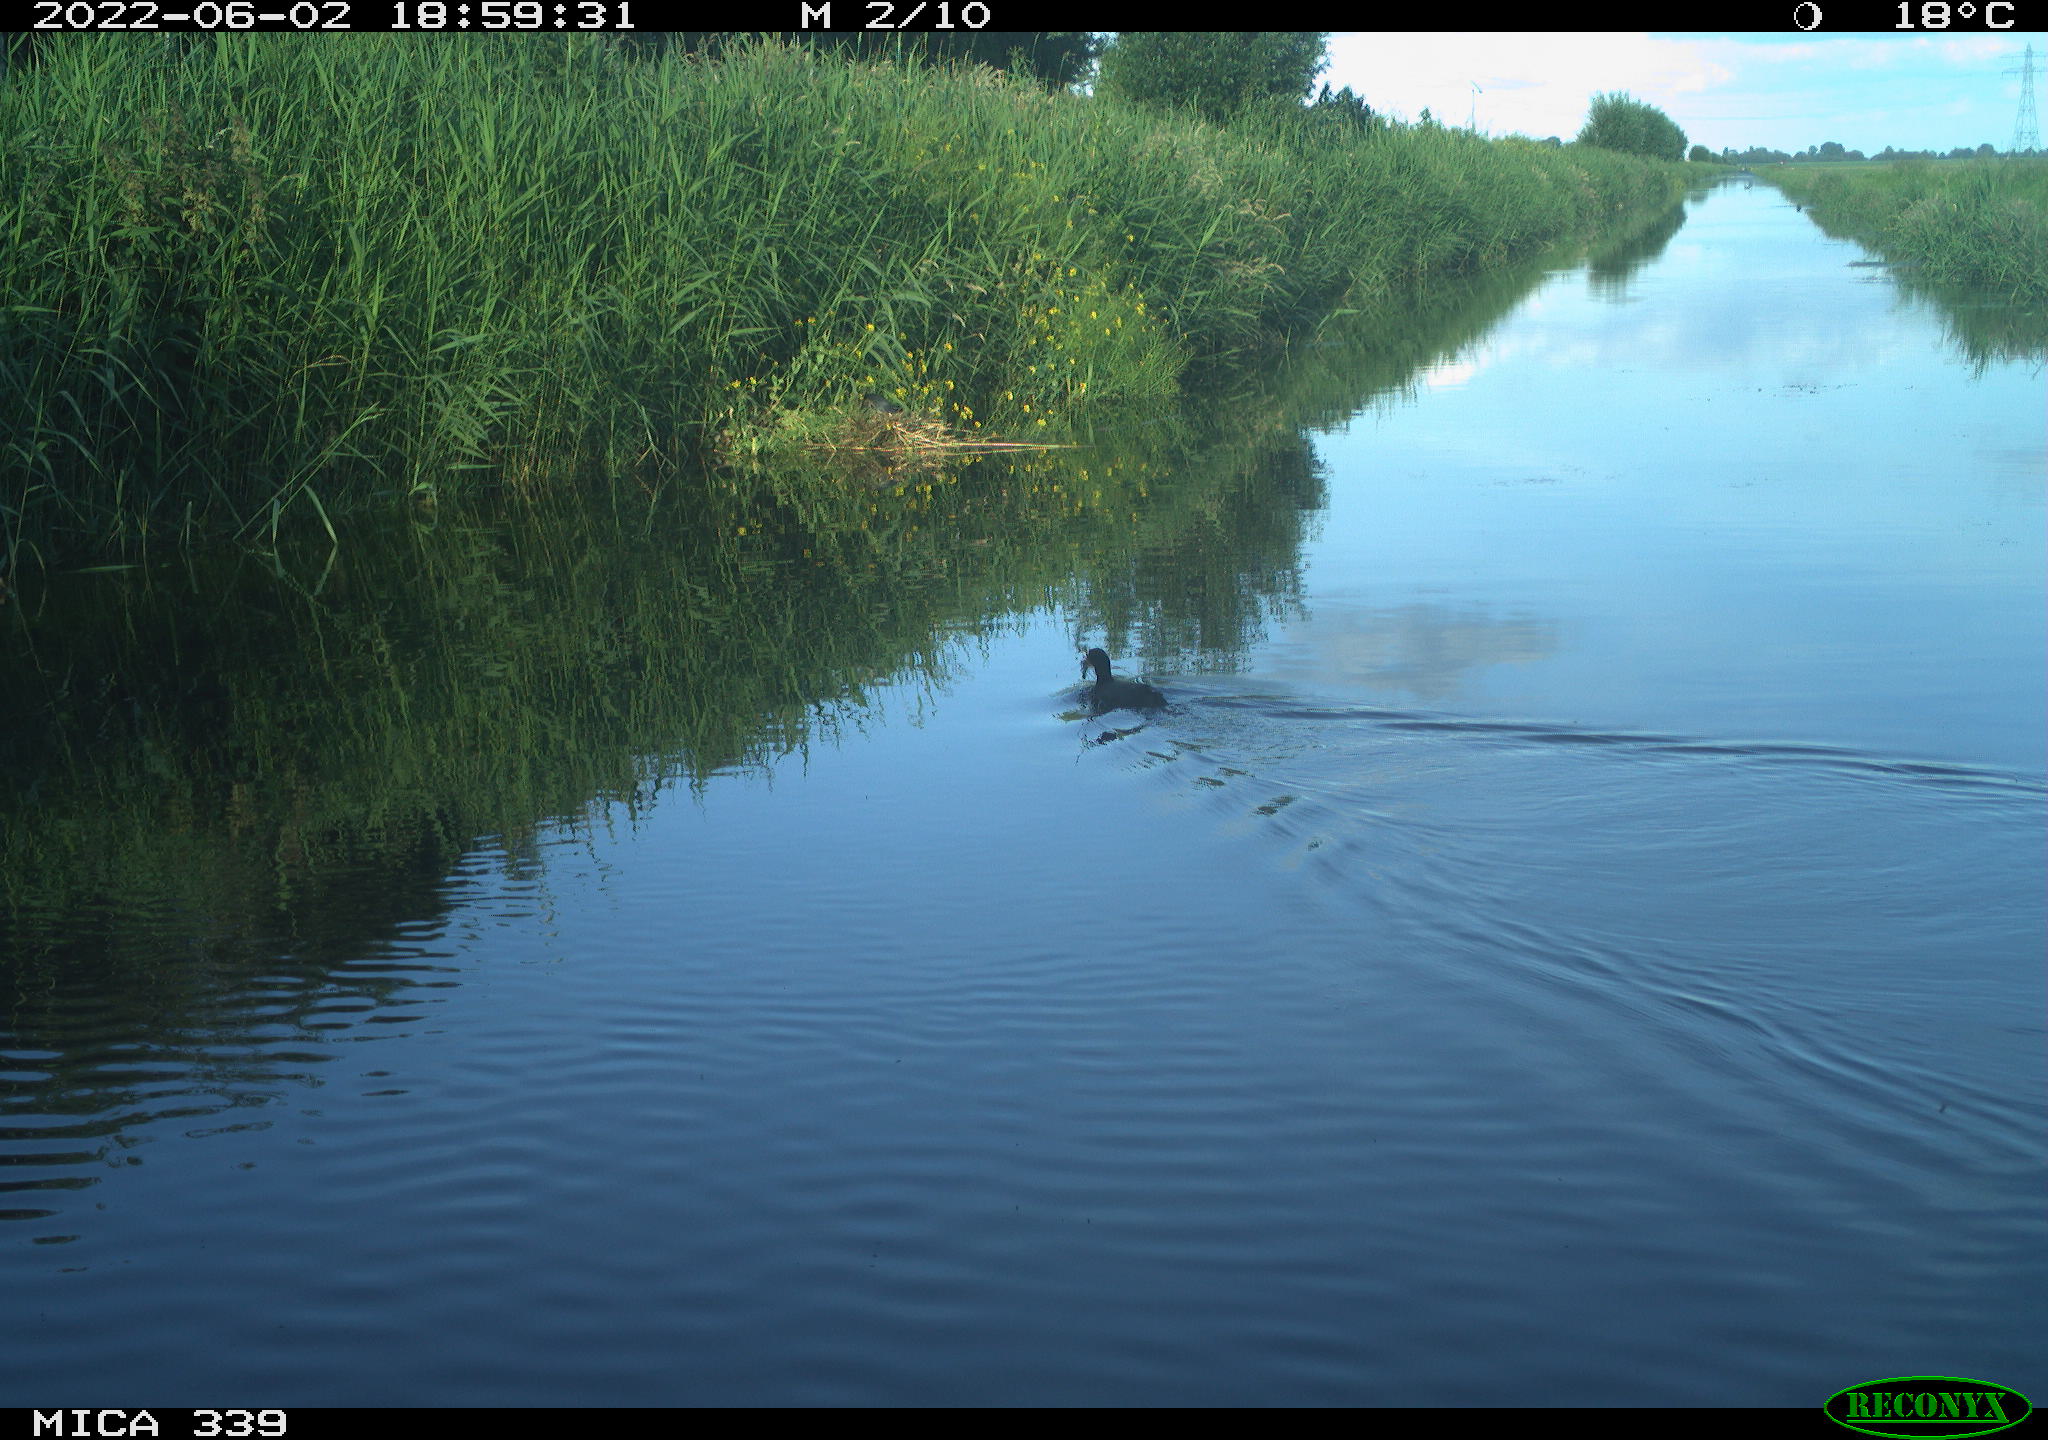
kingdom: Animalia
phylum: Chordata
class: Aves
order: Gruiformes
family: Rallidae
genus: Fulica
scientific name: Fulica atra
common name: Eurasian coot
